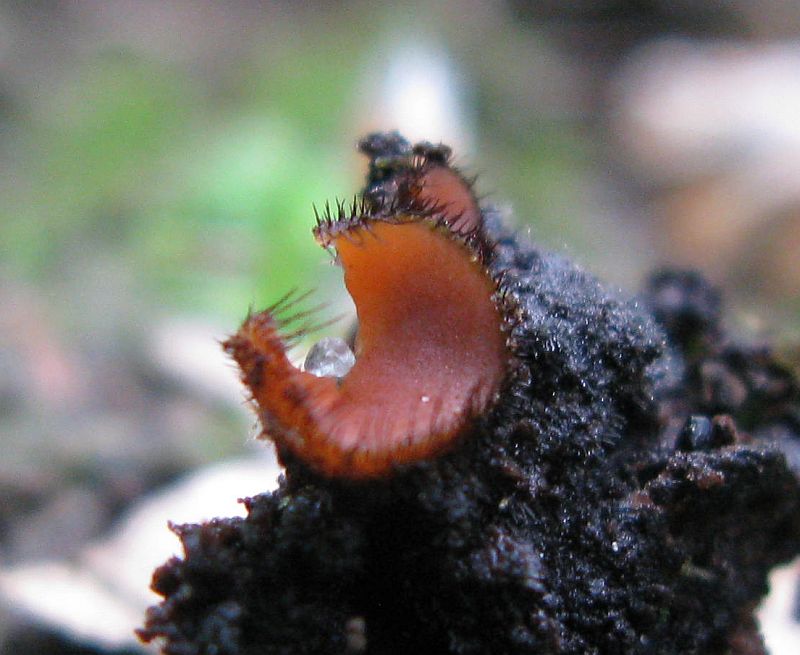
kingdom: Fungi
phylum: Ascomycota
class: Pezizomycetes
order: Pezizales
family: Pyronemataceae
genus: Scutellinia
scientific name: Scutellinia scutellata
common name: frynset skjoldbæger
